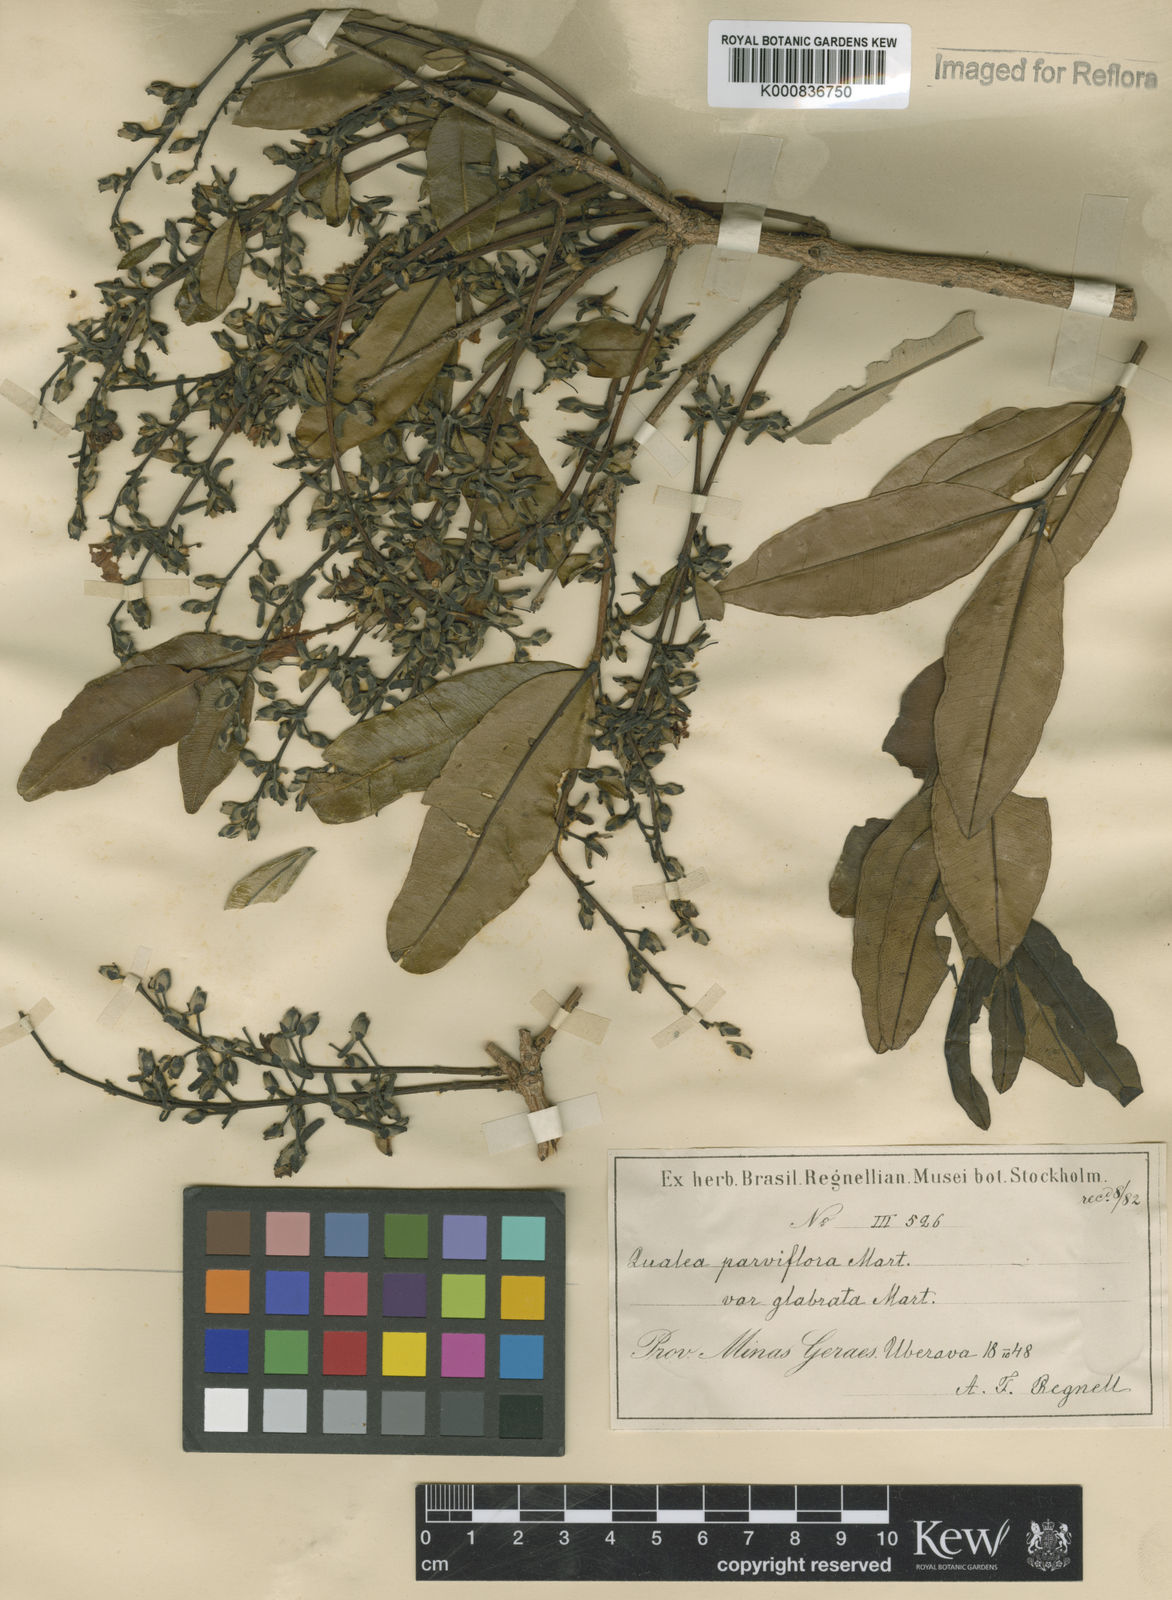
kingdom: Plantae
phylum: Tracheophyta
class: Magnoliopsida
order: Myrtales
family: Vochysiaceae
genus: Qualea
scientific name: Qualea parviflora
